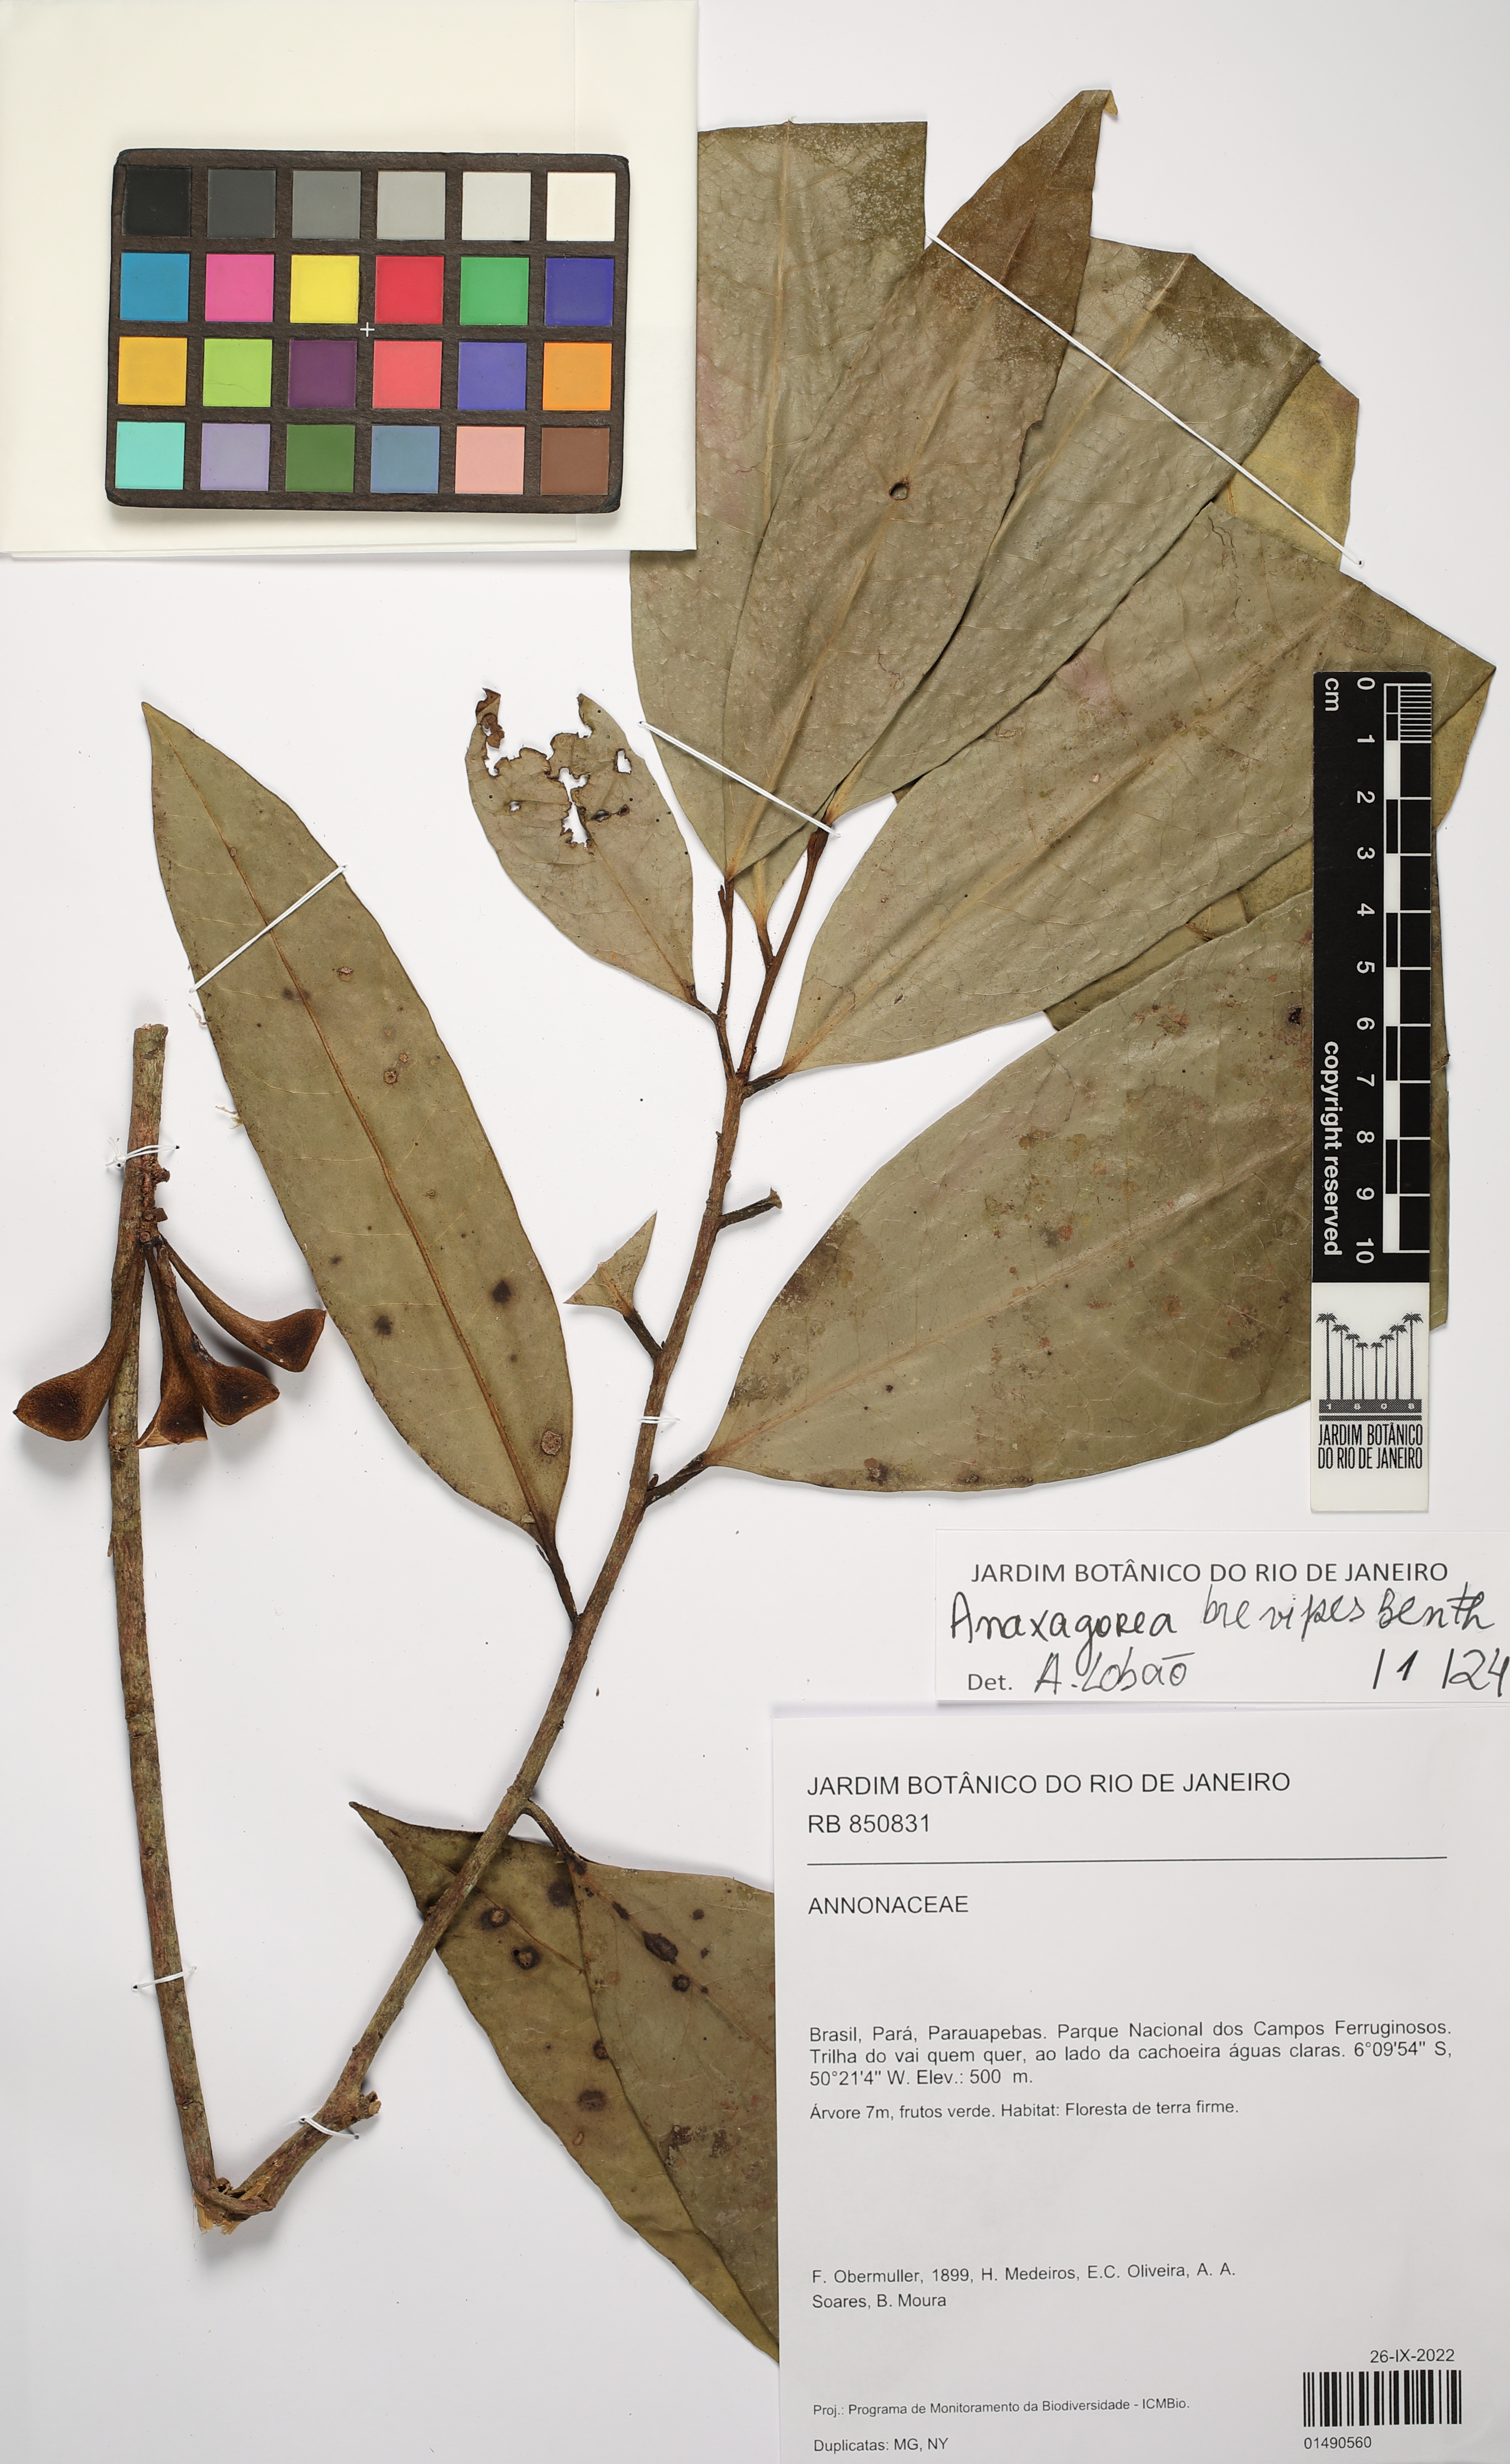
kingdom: Plantae
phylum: Tracheophyta
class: Magnoliopsida
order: Magnoliales
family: Annonaceae
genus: Anaxagorea
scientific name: Anaxagorea brevipes
